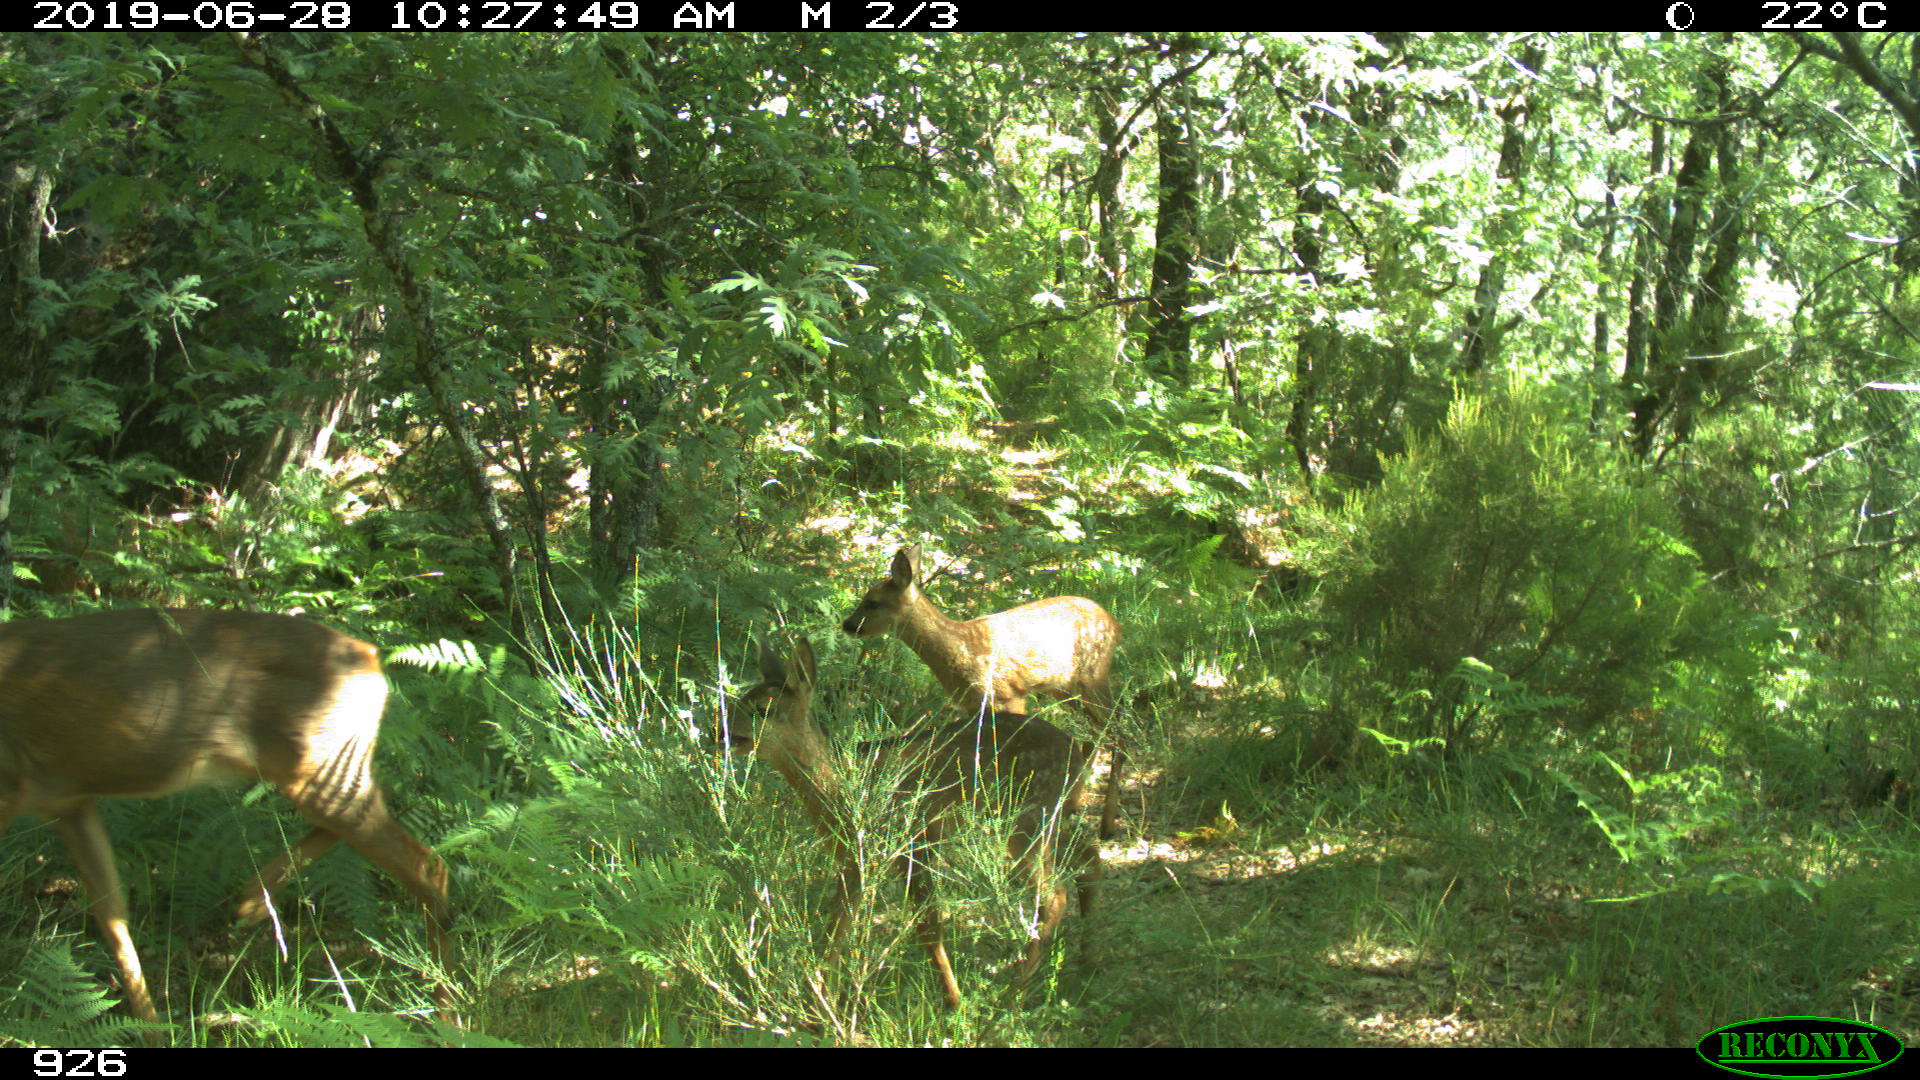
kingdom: Animalia
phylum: Chordata
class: Mammalia
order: Artiodactyla
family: Cervidae
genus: Capreolus
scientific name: Capreolus capreolus
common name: Western roe deer
